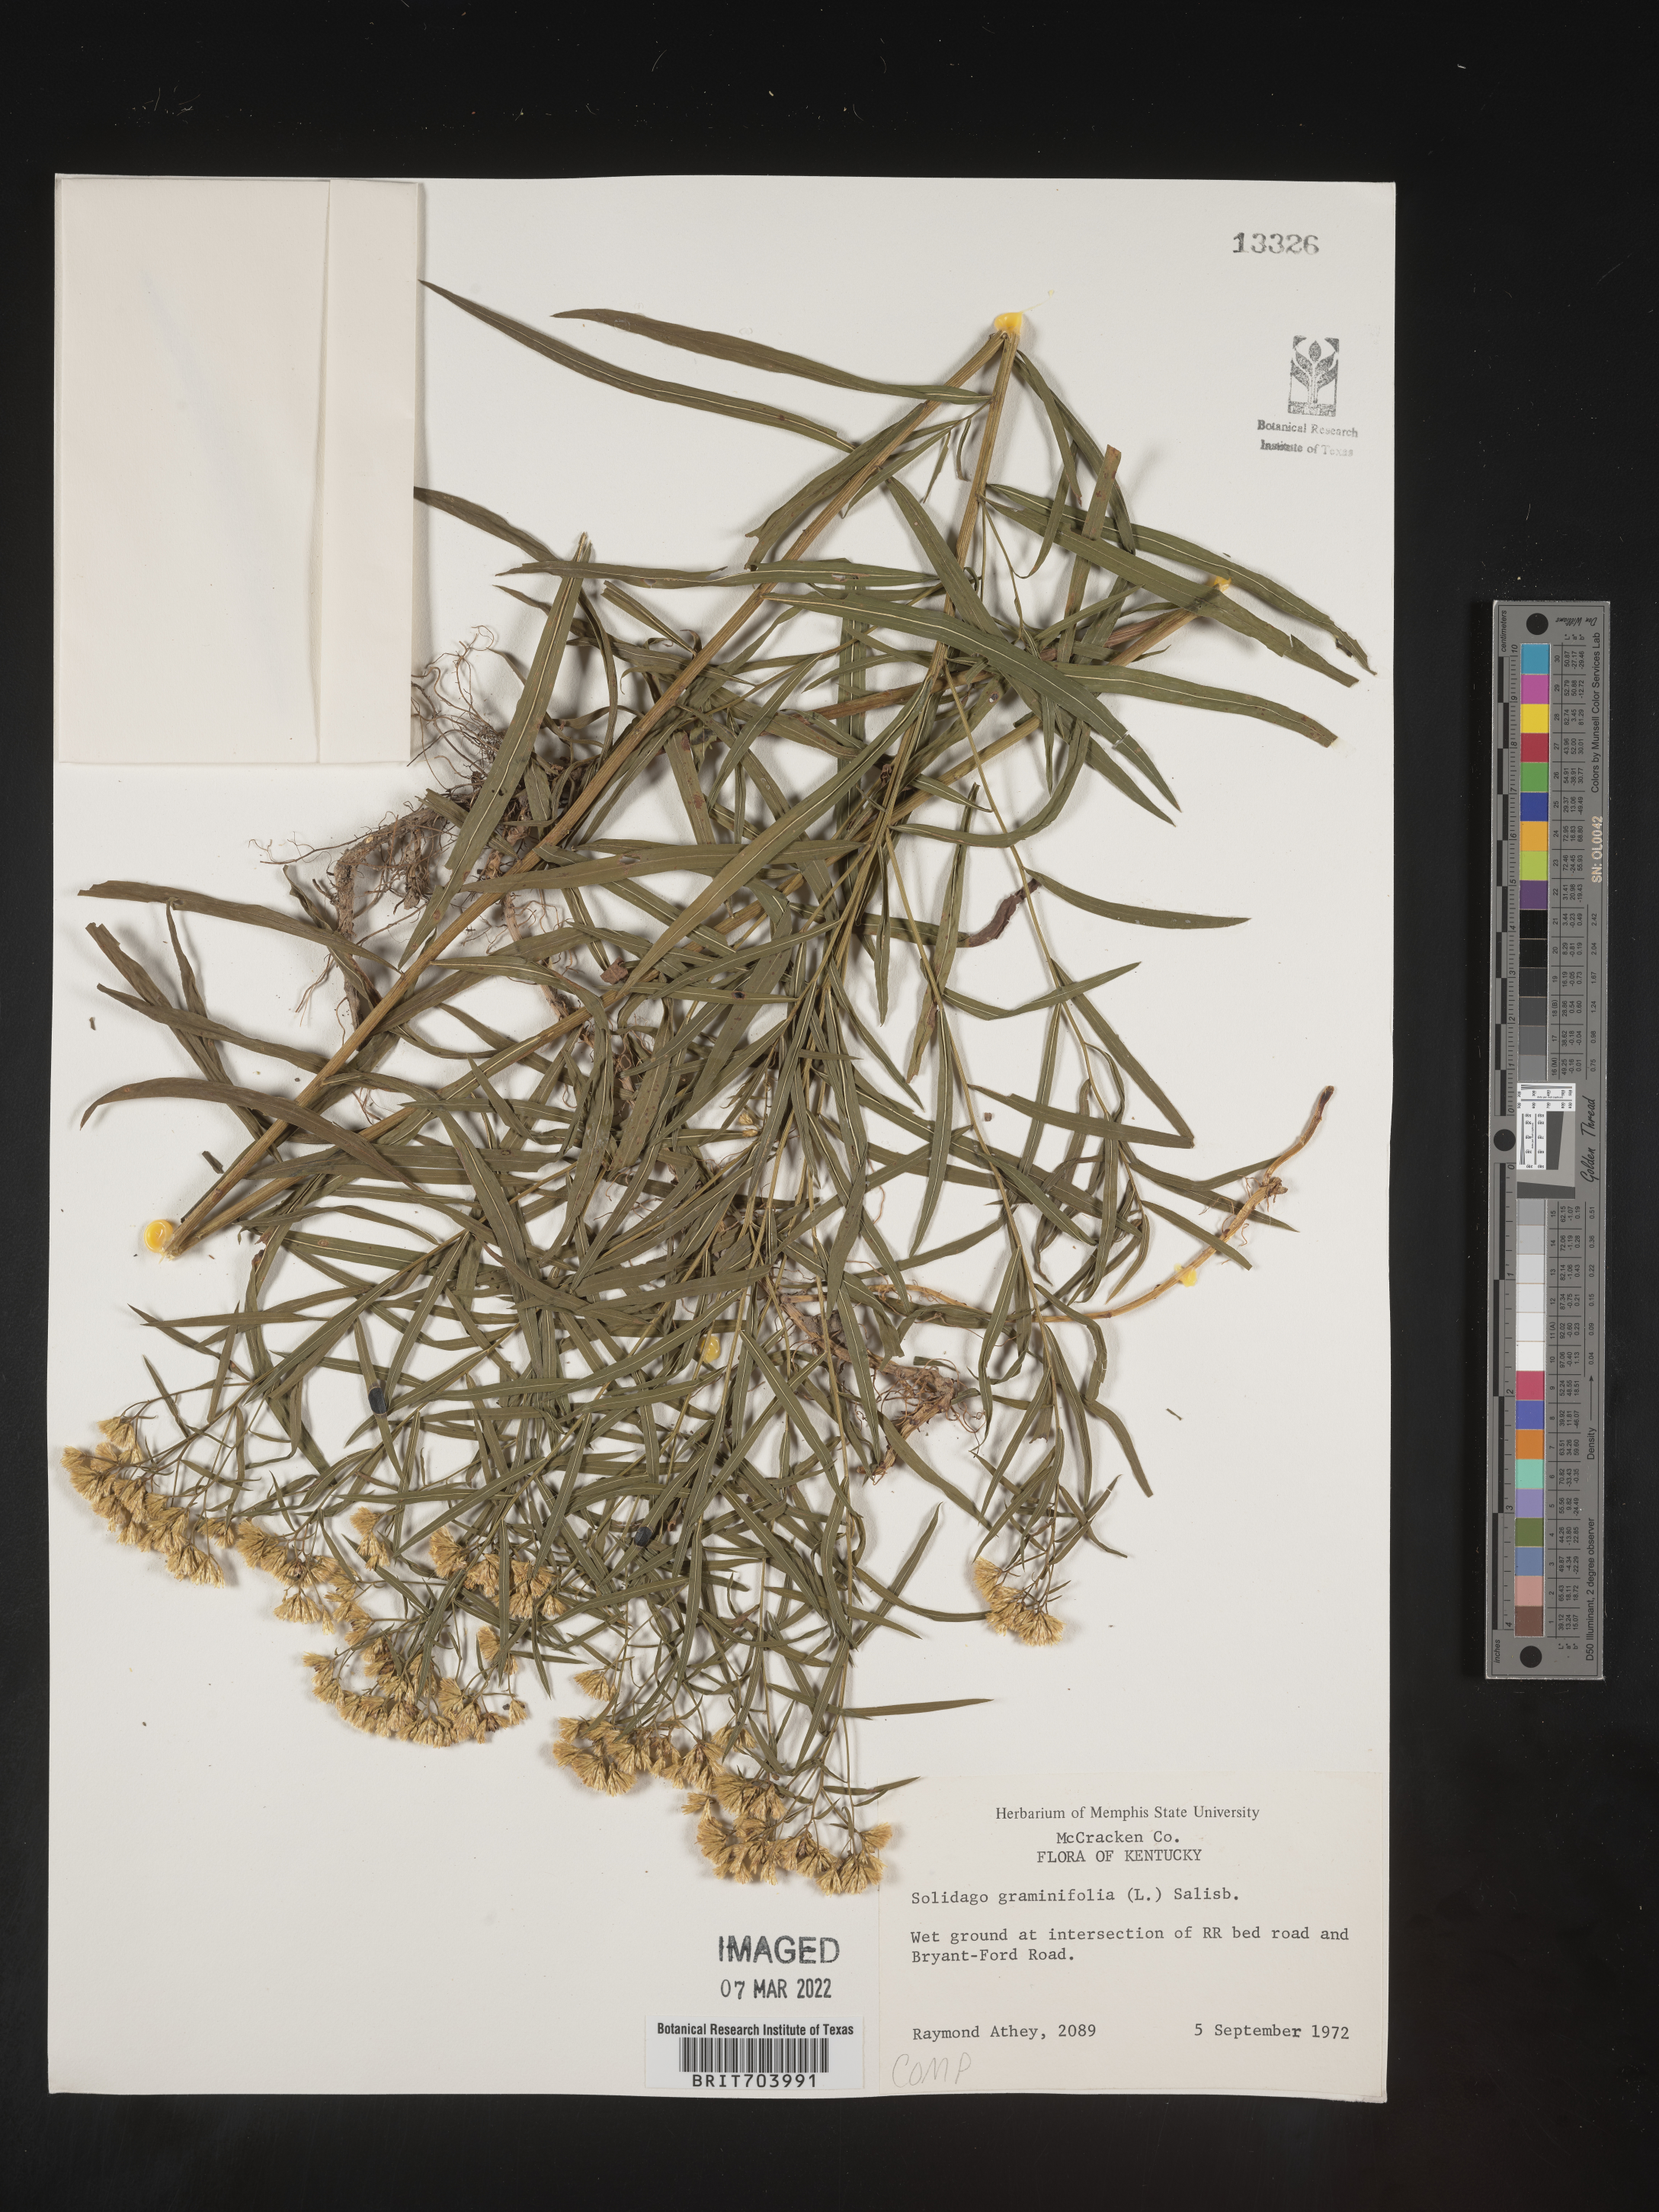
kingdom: Plantae
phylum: Tracheophyta
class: Magnoliopsida
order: Asterales
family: Asteraceae
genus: Euthamia
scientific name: Euthamia graminifolia
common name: Common goldentop
